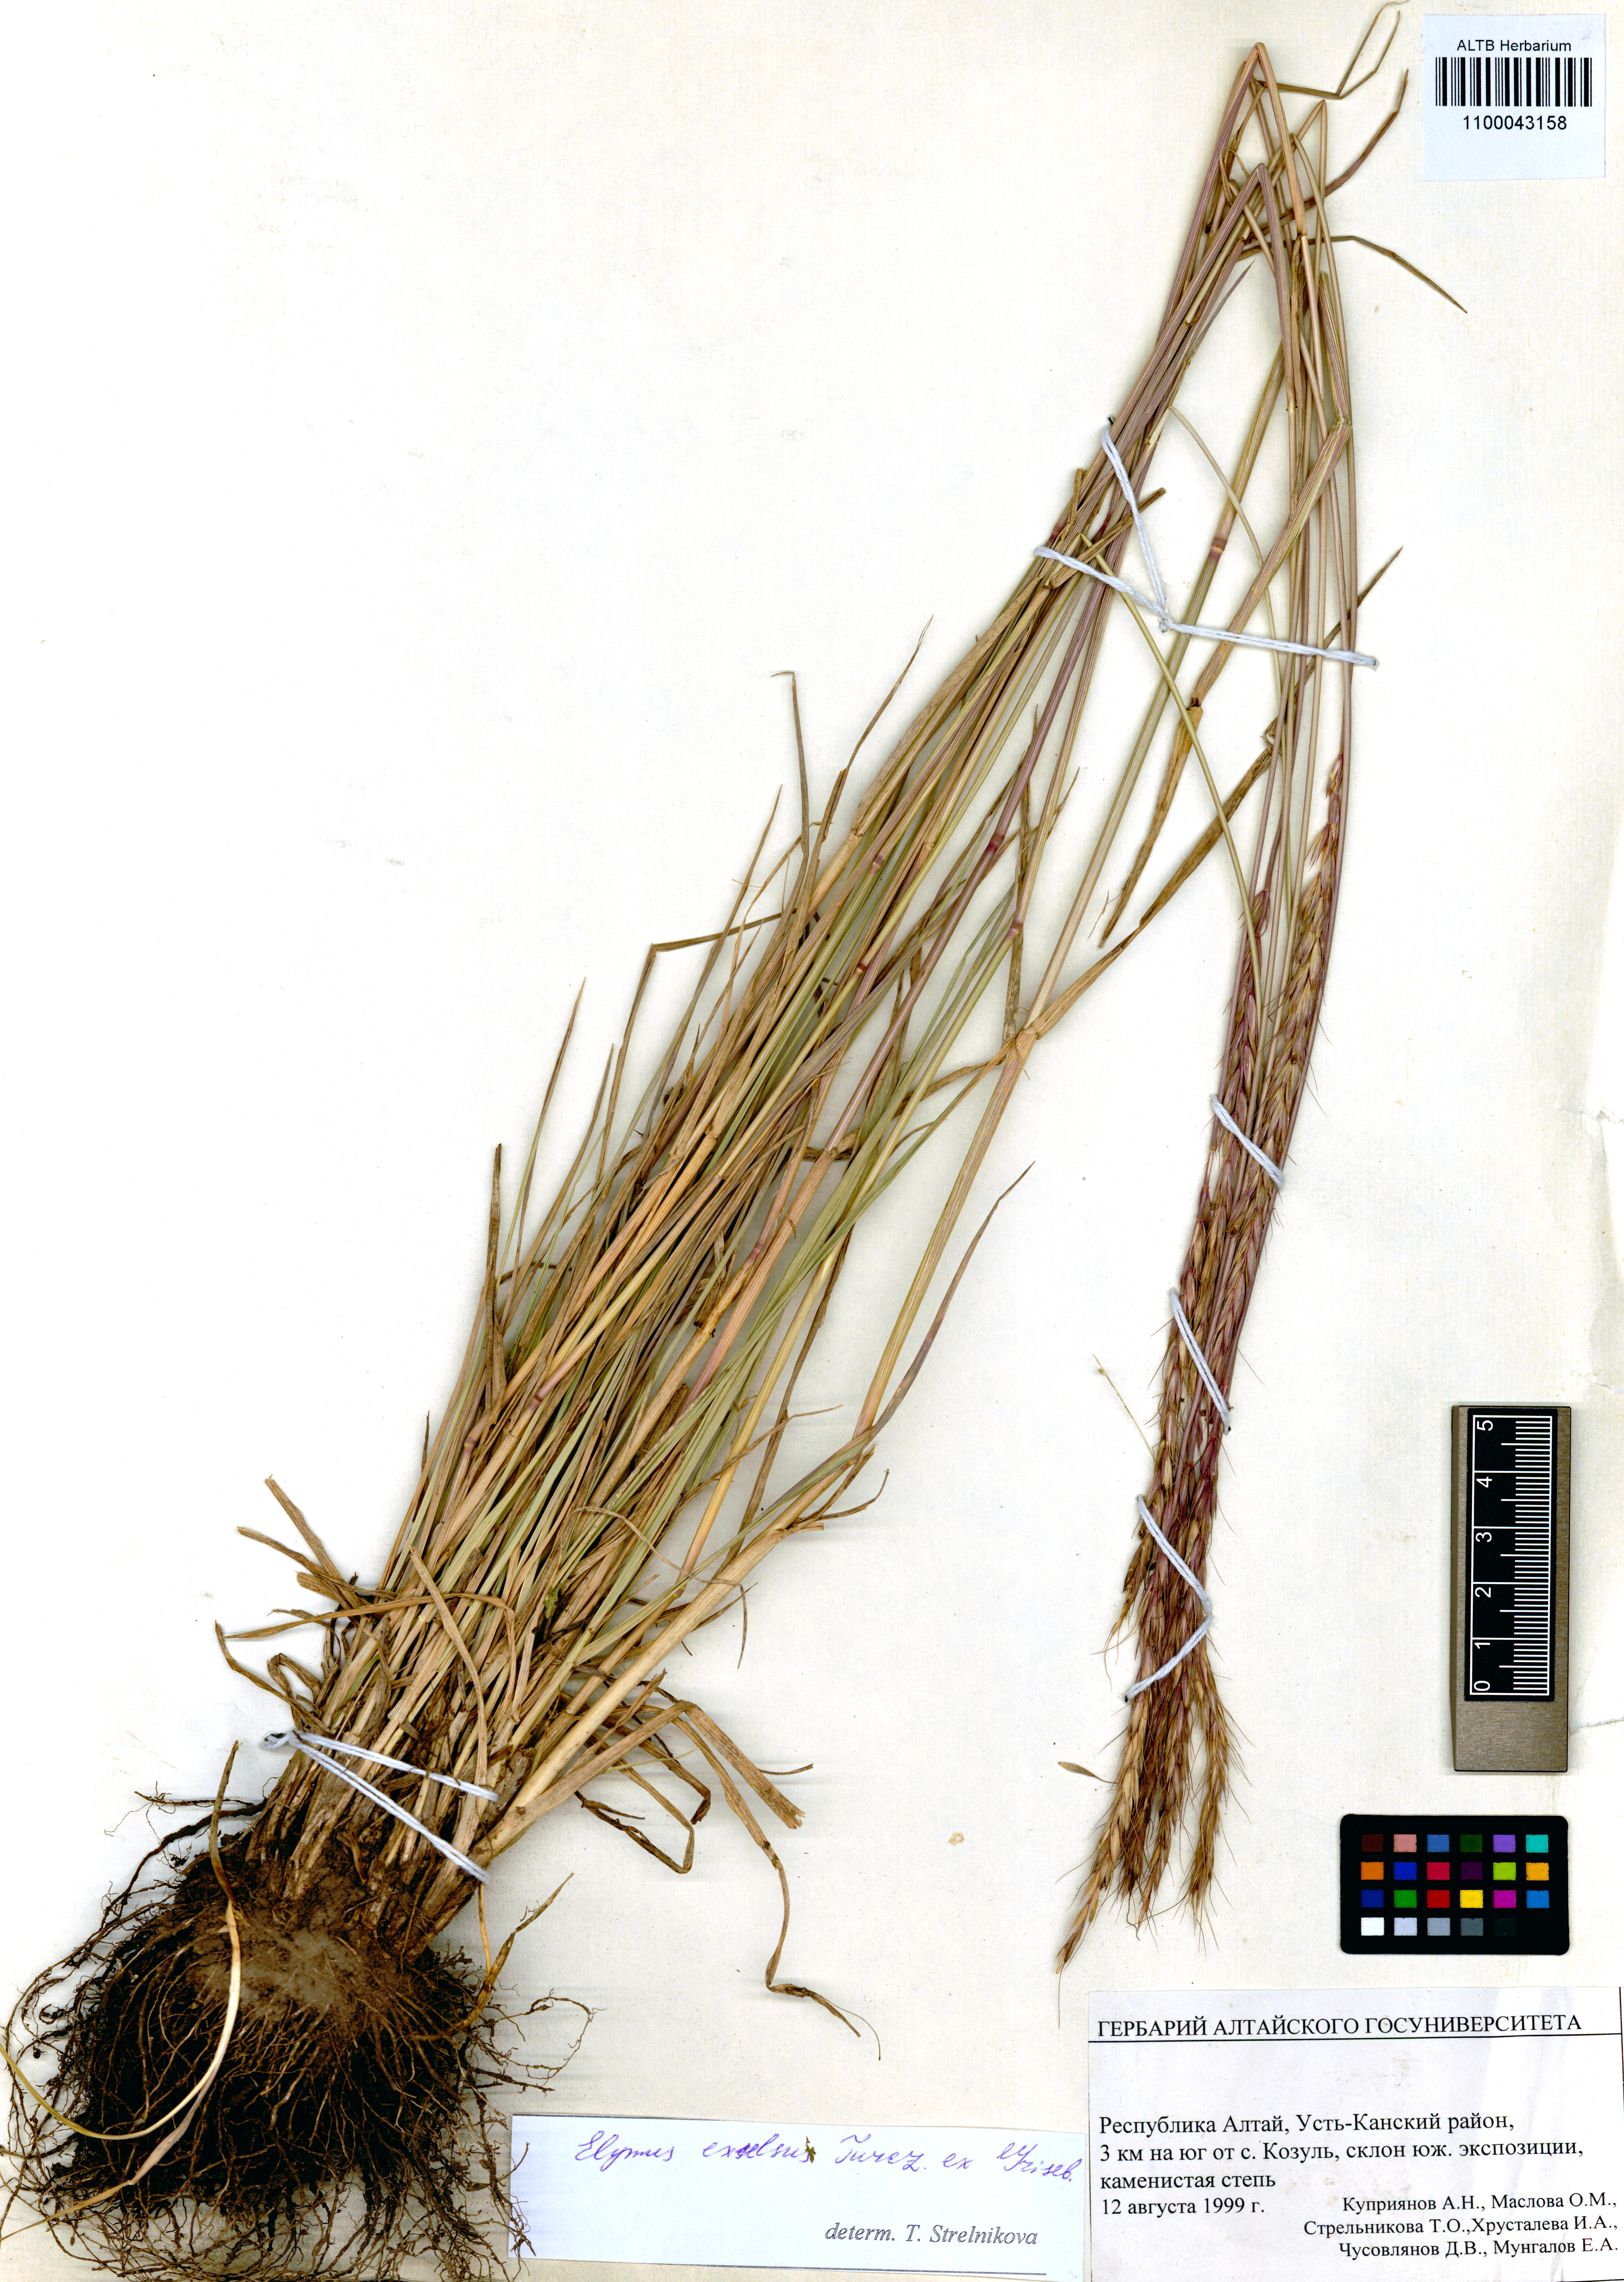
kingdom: Plantae
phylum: Tracheophyta
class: Liliopsida
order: Poales
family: Poaceae
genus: Elymus
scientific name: Elymus dahuricus
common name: Dahurian wild rye
